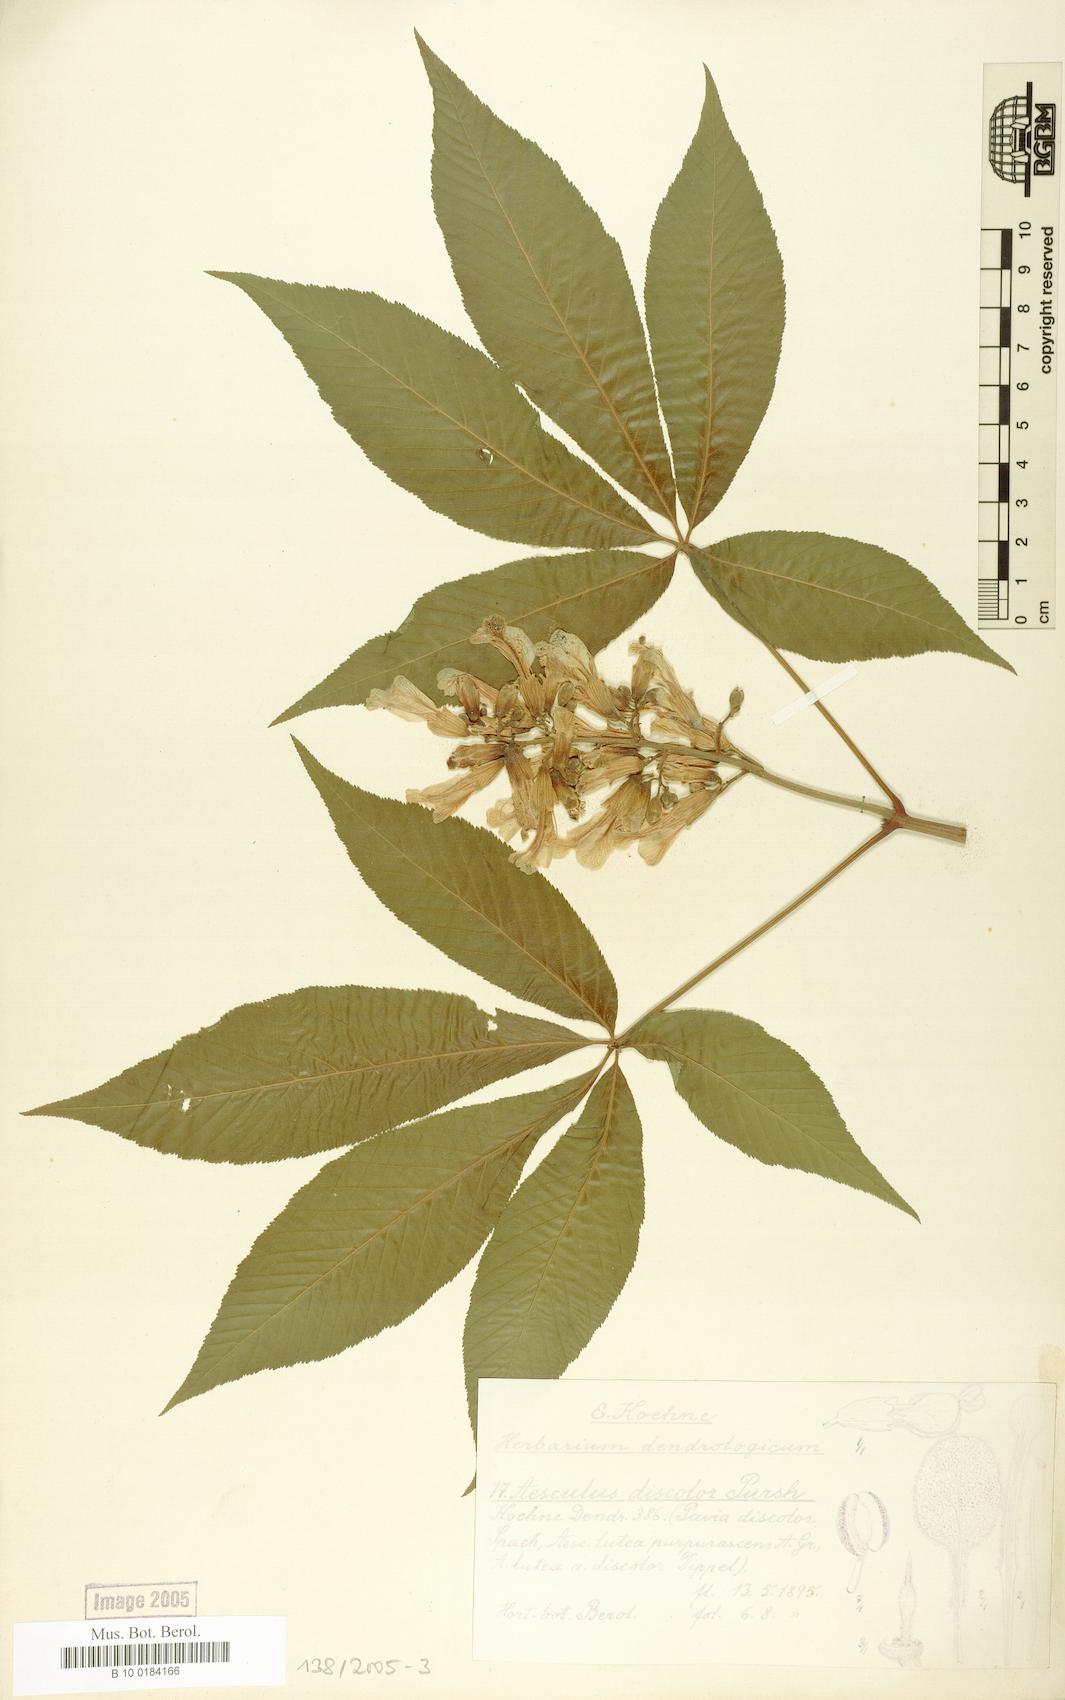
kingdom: Plantae
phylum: Tracheophyta
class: Magnoliopsida
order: Sapindales
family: Sapindaceae
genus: Aesculus
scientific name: Aesculus pavia
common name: Red buckeye
